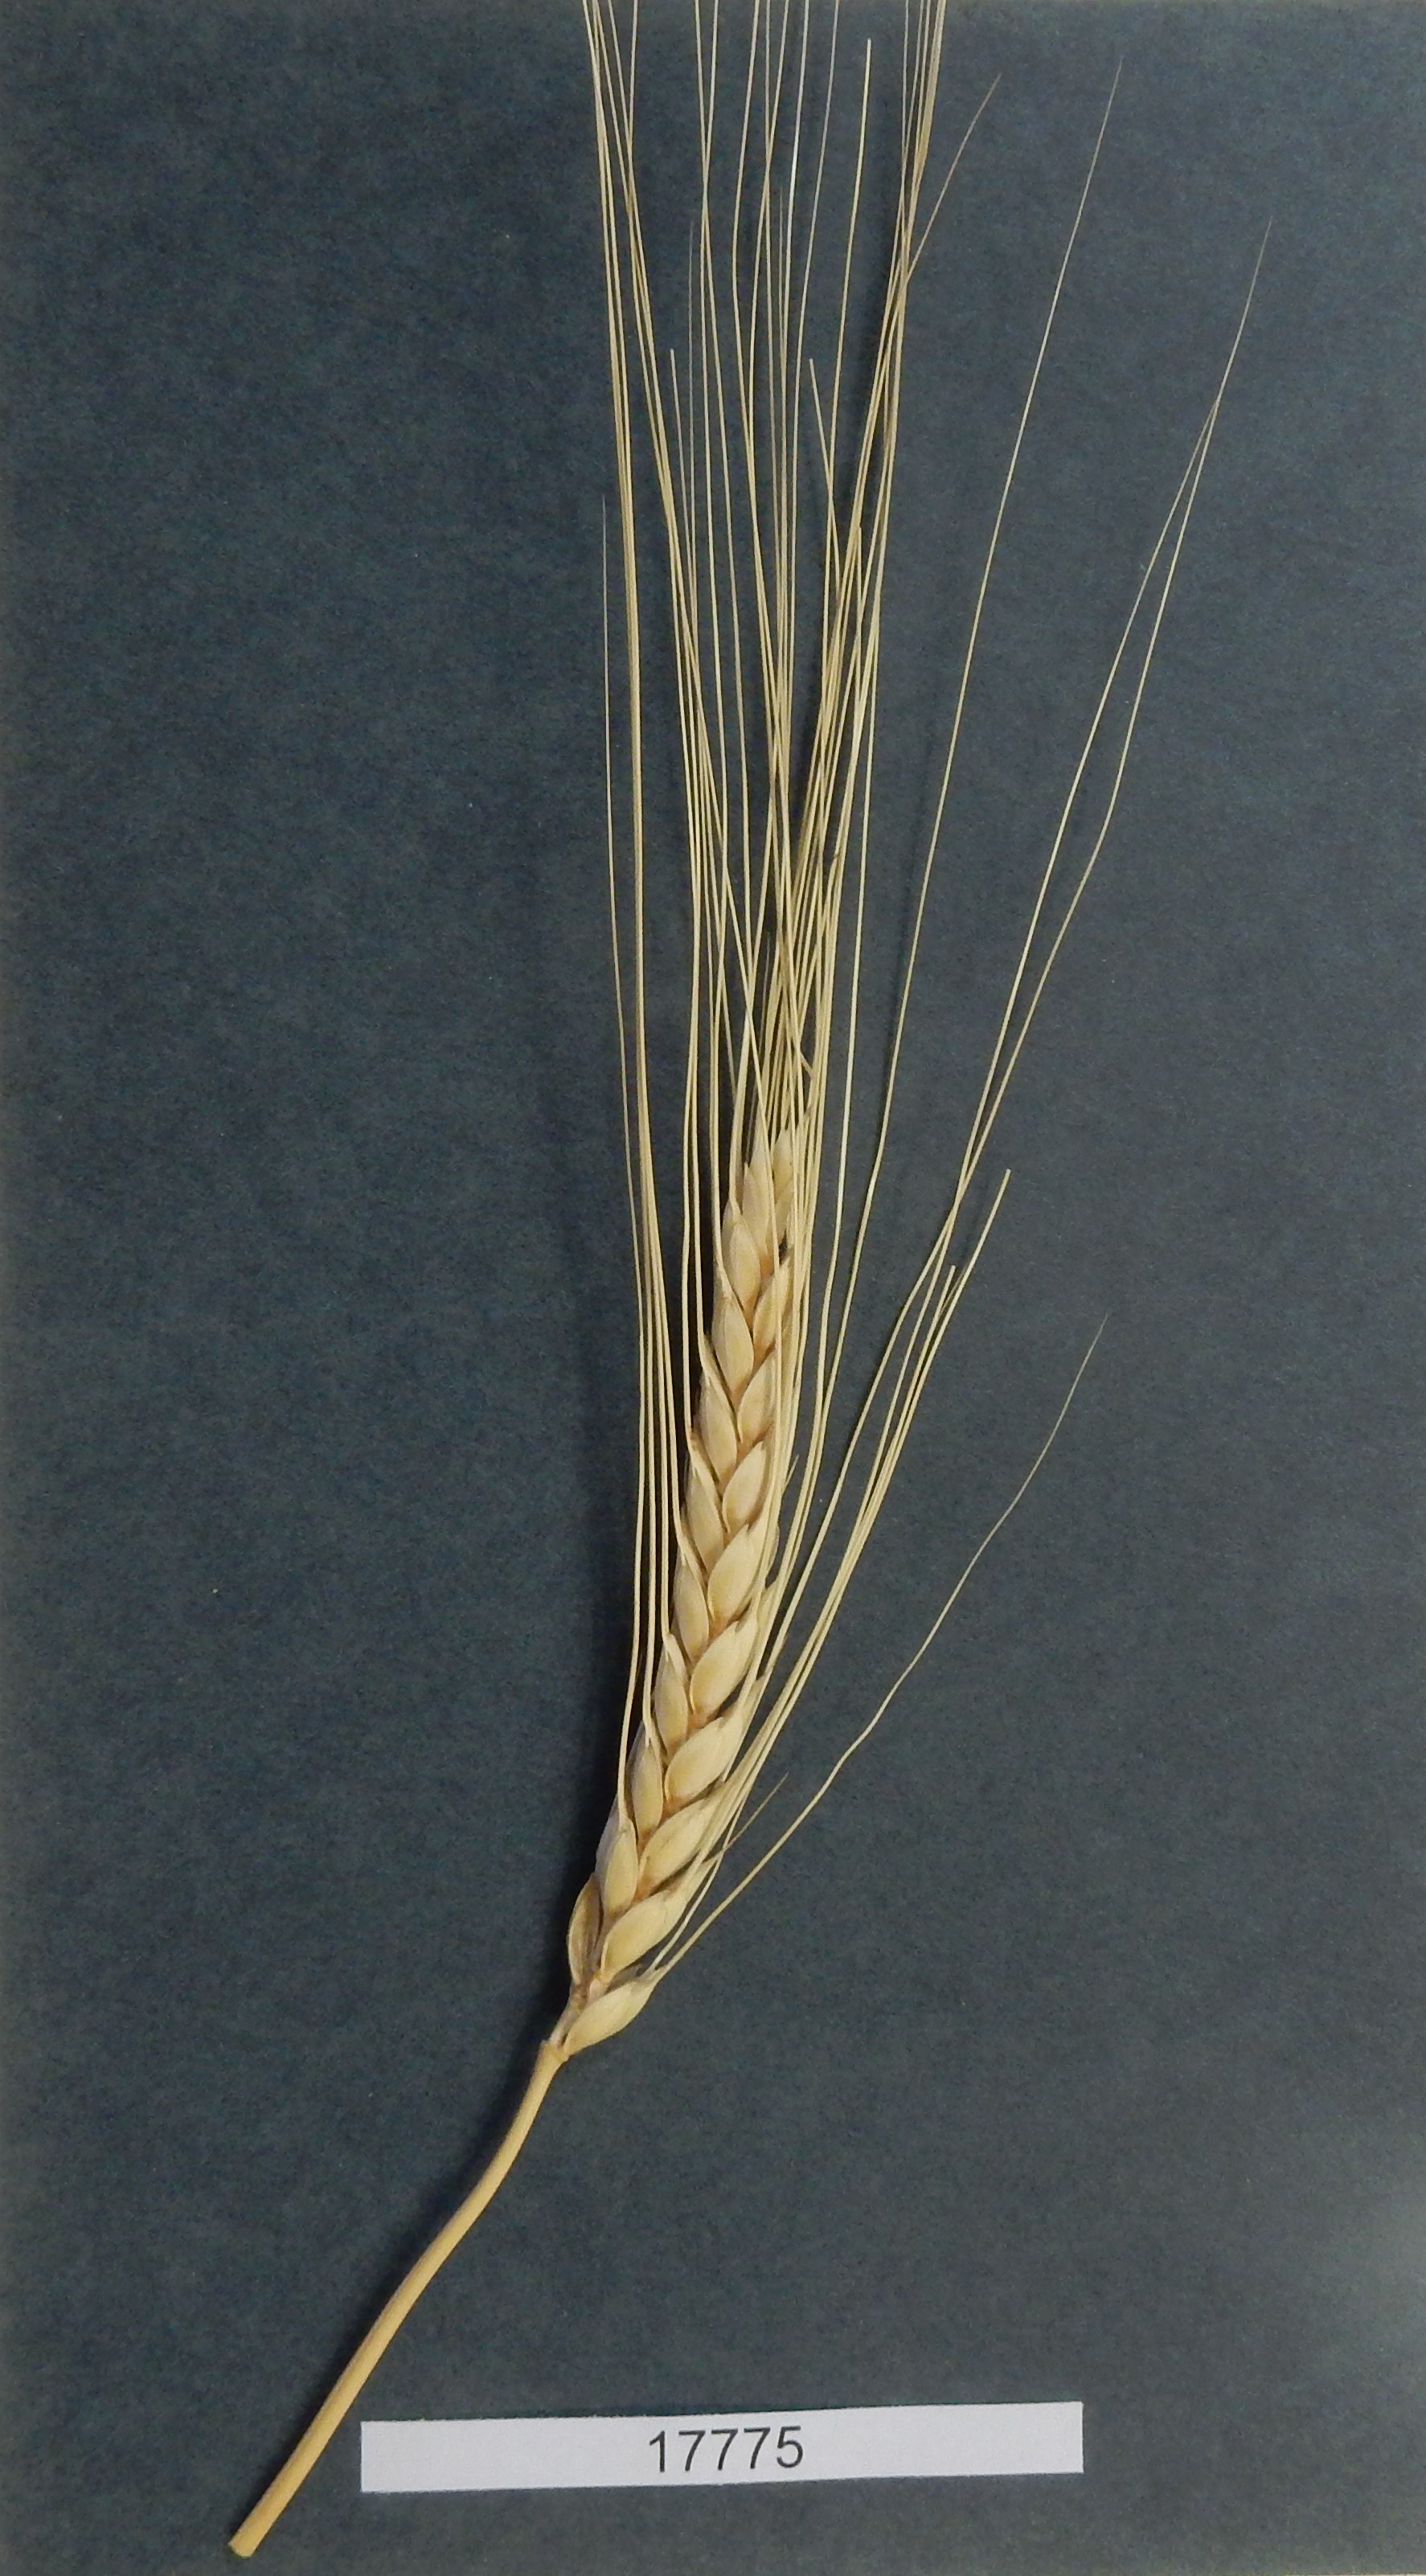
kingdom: Plantae
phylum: Tracheophyta
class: Liliopsida
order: Poales
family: Poaceae
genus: Triticum
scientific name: Triticum turgidum
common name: Wheat
